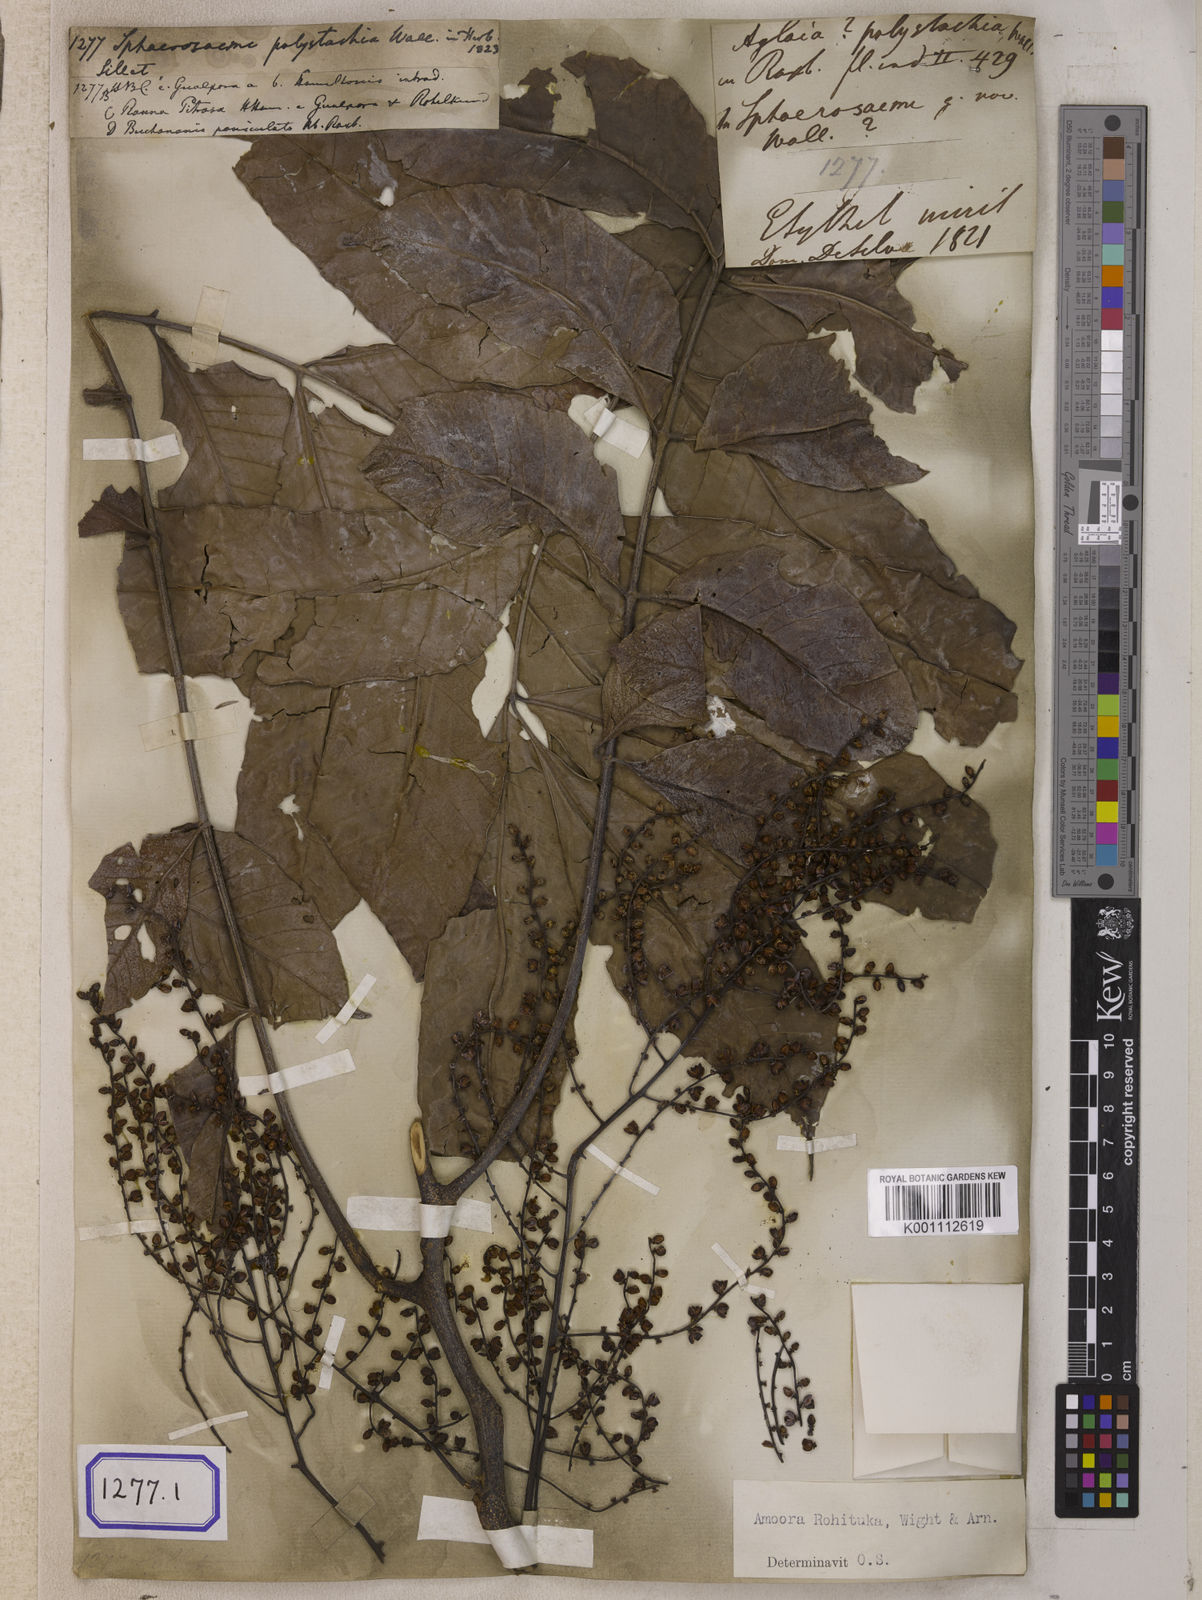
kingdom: Plantae
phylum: Tracheophyta
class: Magnoliopsida
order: Sapindales
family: Meliaceae
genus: Aphanamixis
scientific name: Aphanamixis polystachya
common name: Pithraj tree
